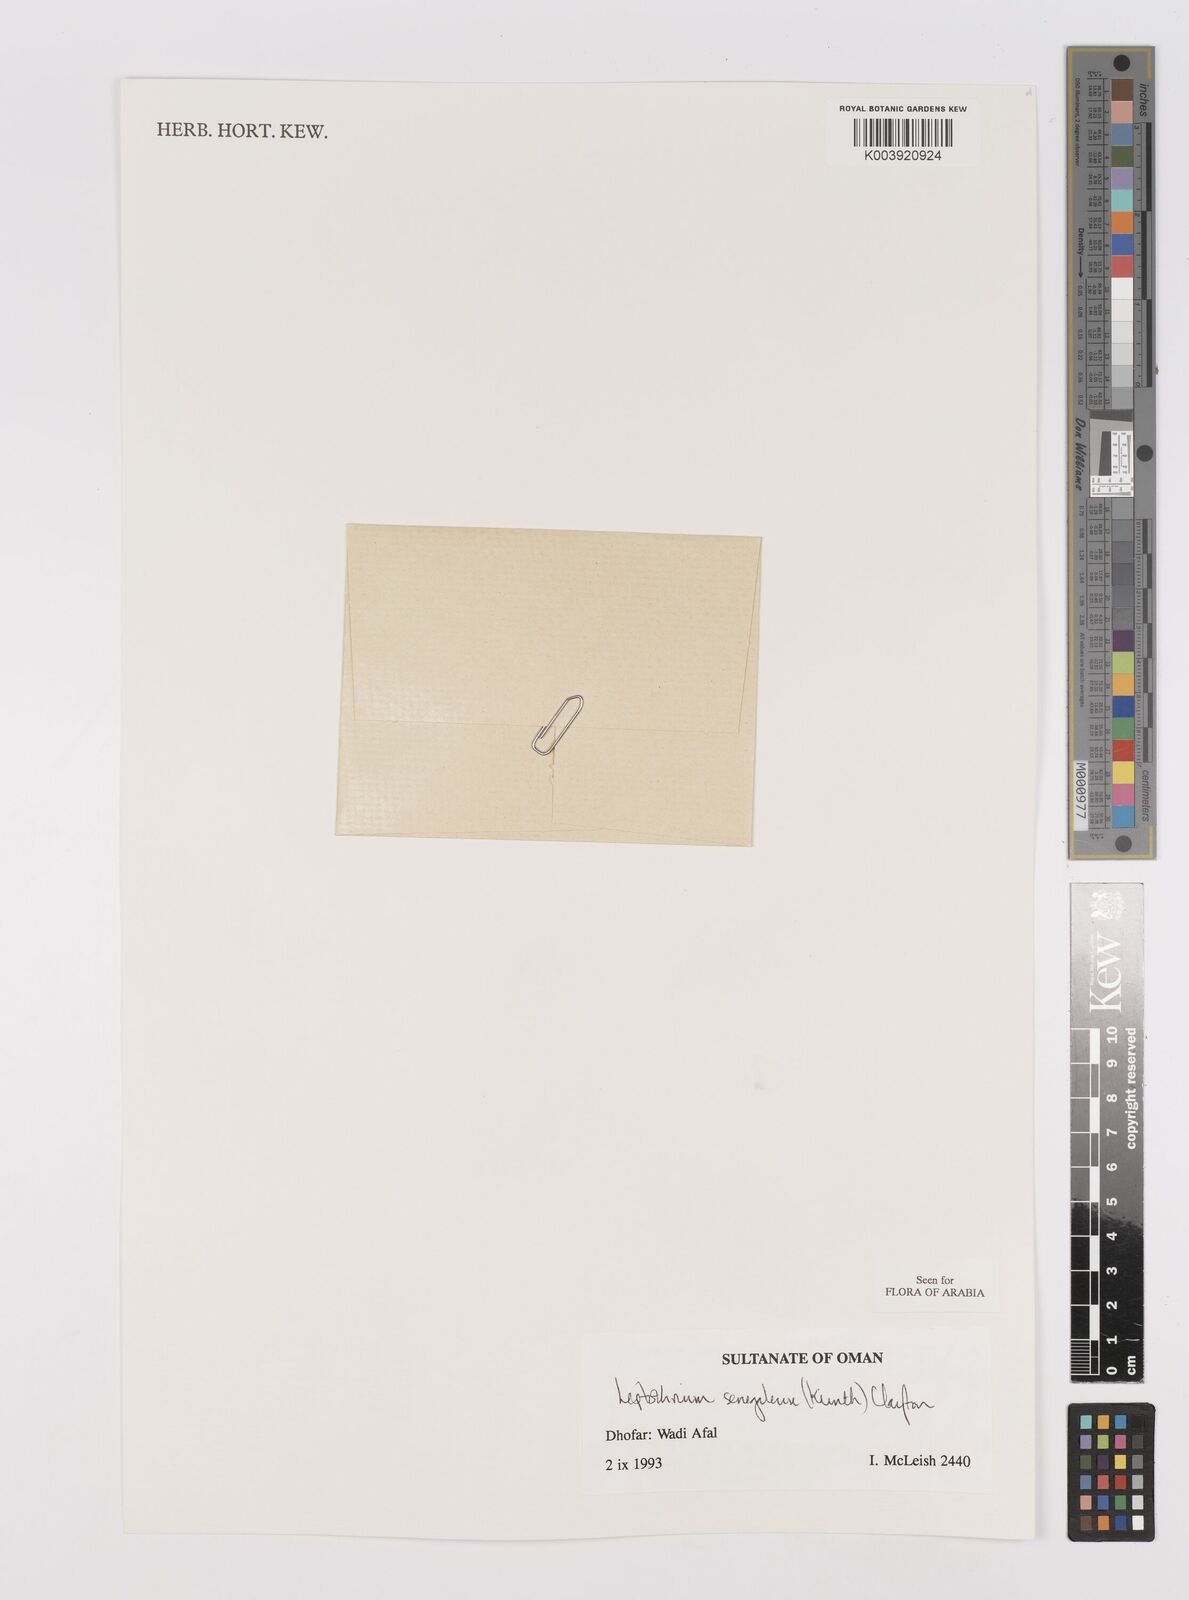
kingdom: Plantae
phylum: Tracheophyta
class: Liliopsida
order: Poales
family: Poaceae
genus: Leptothrium
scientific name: Leptothrium senegalense
